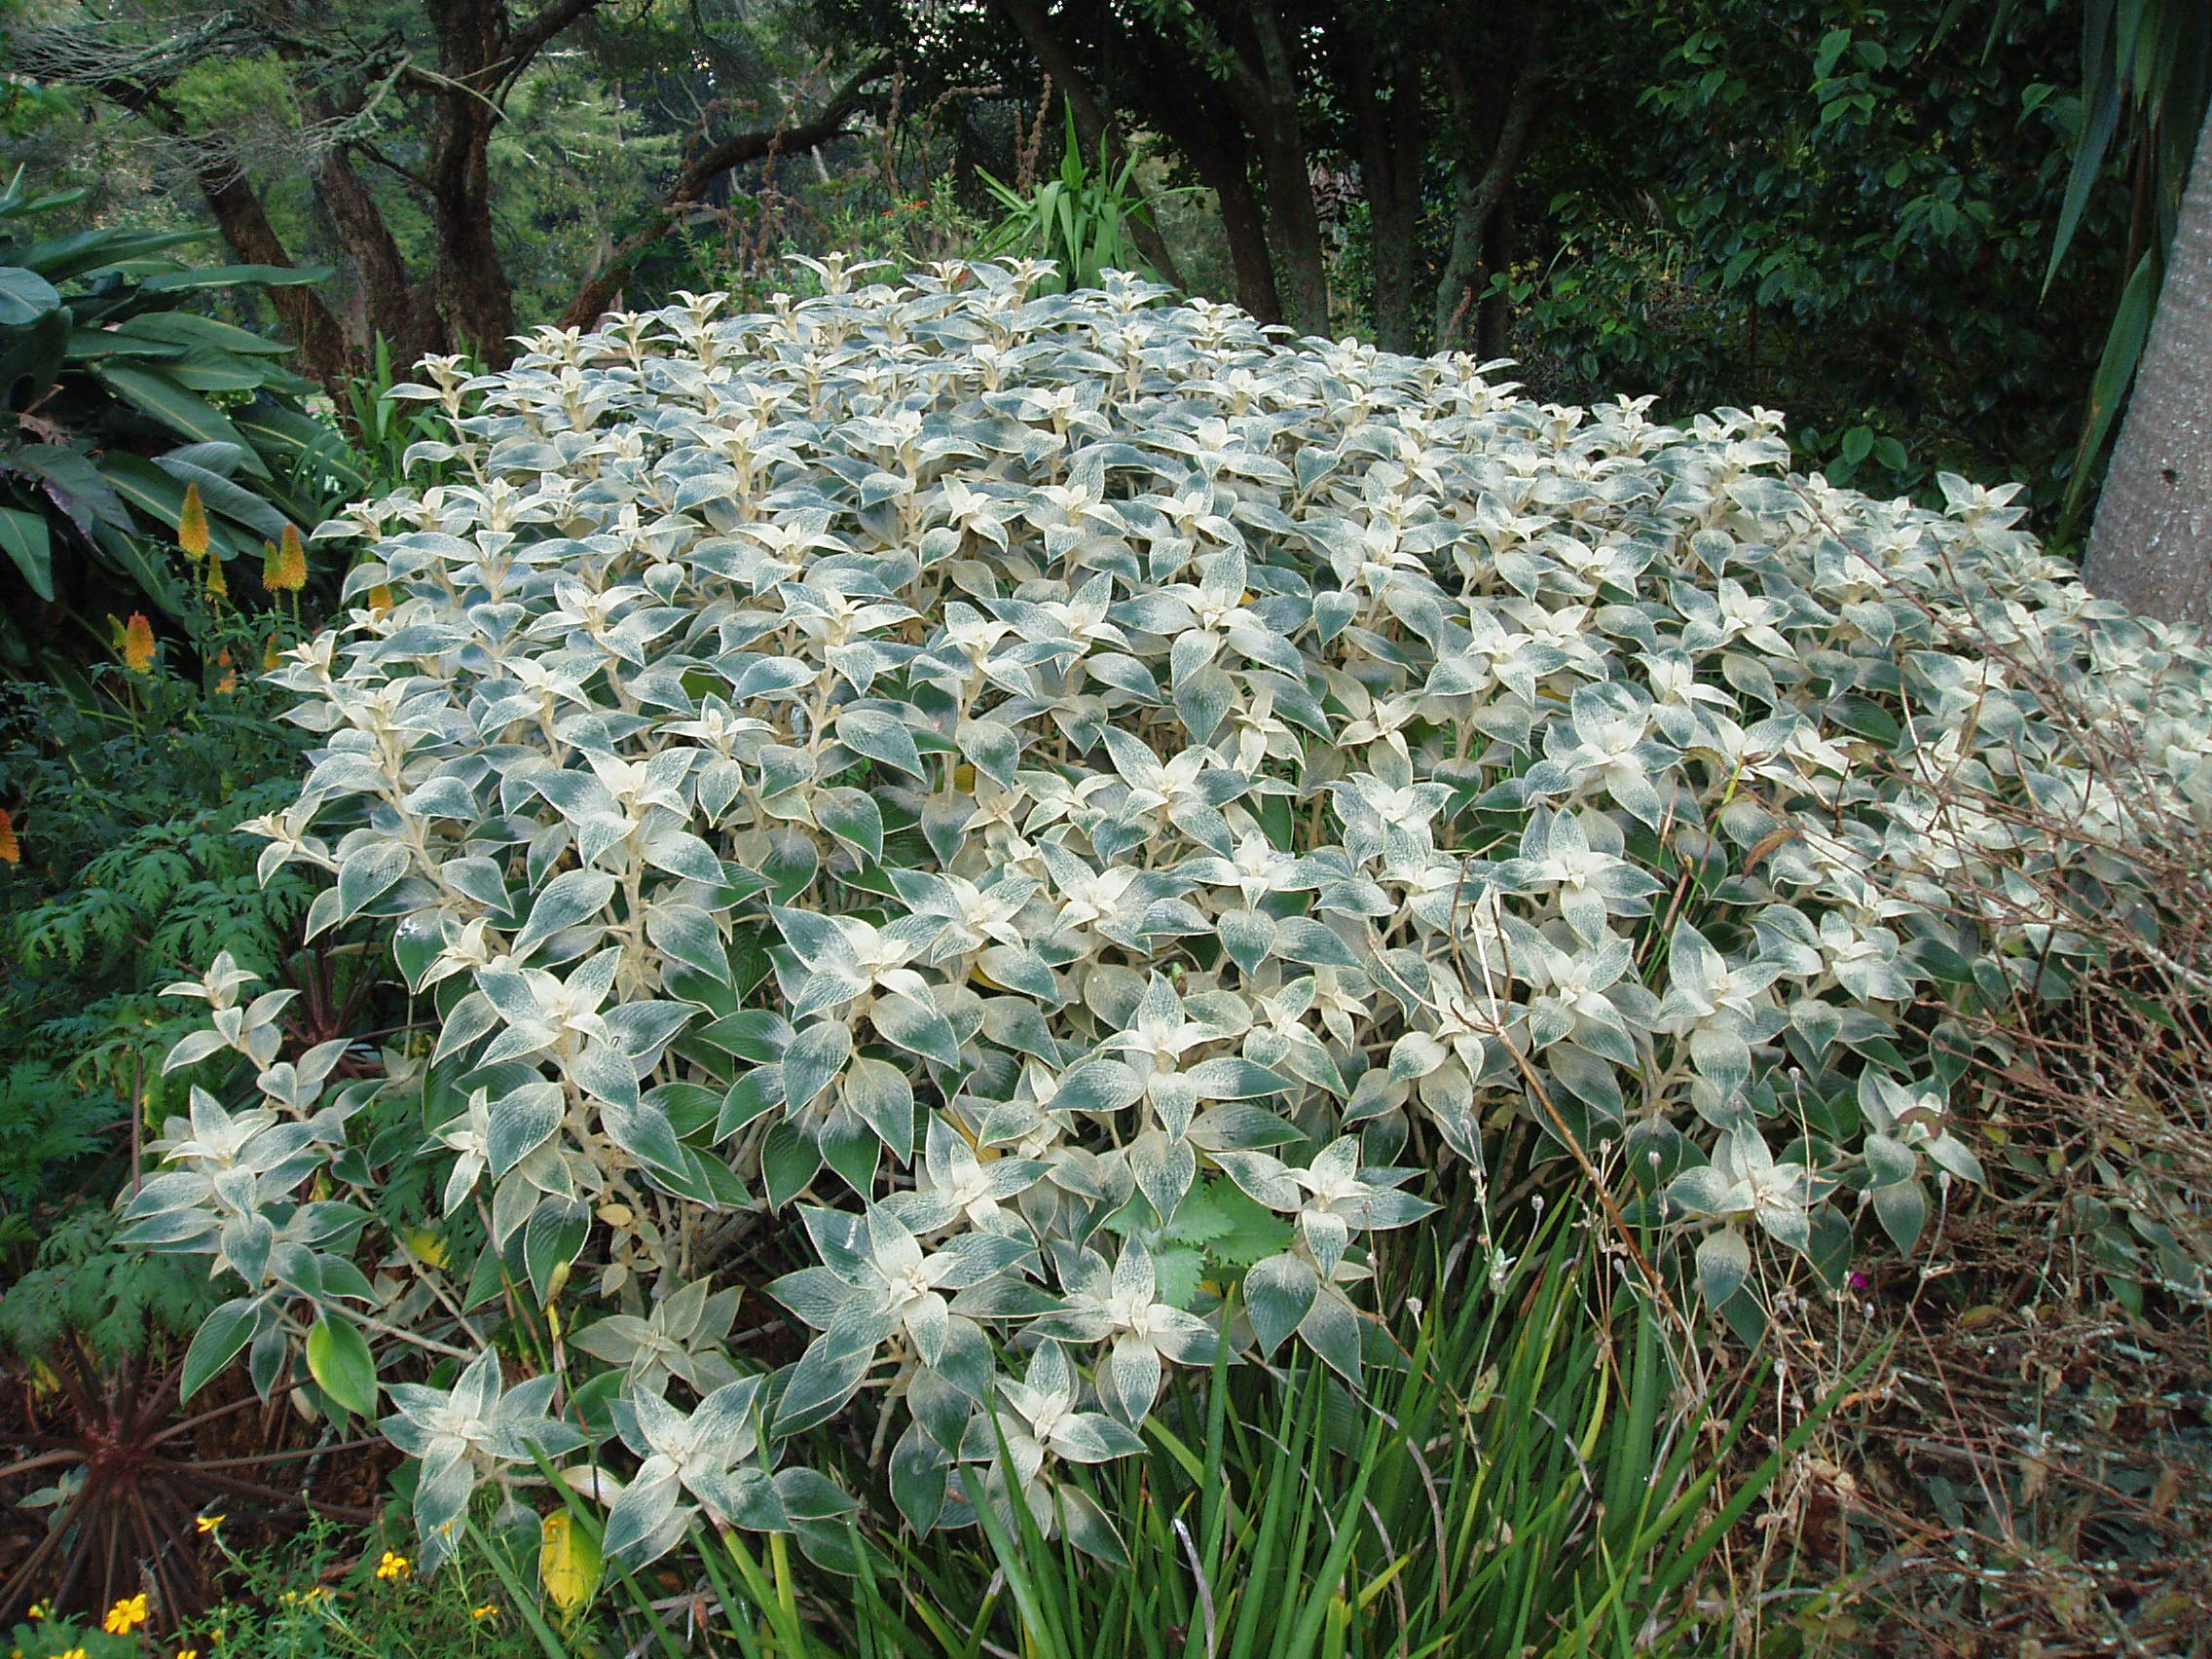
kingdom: Plantae
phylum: Tracheophyta
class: Magnoliopsida
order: Lamiales
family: Acanthaceae
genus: Strobilanthes
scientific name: Strobilanthes lanata
